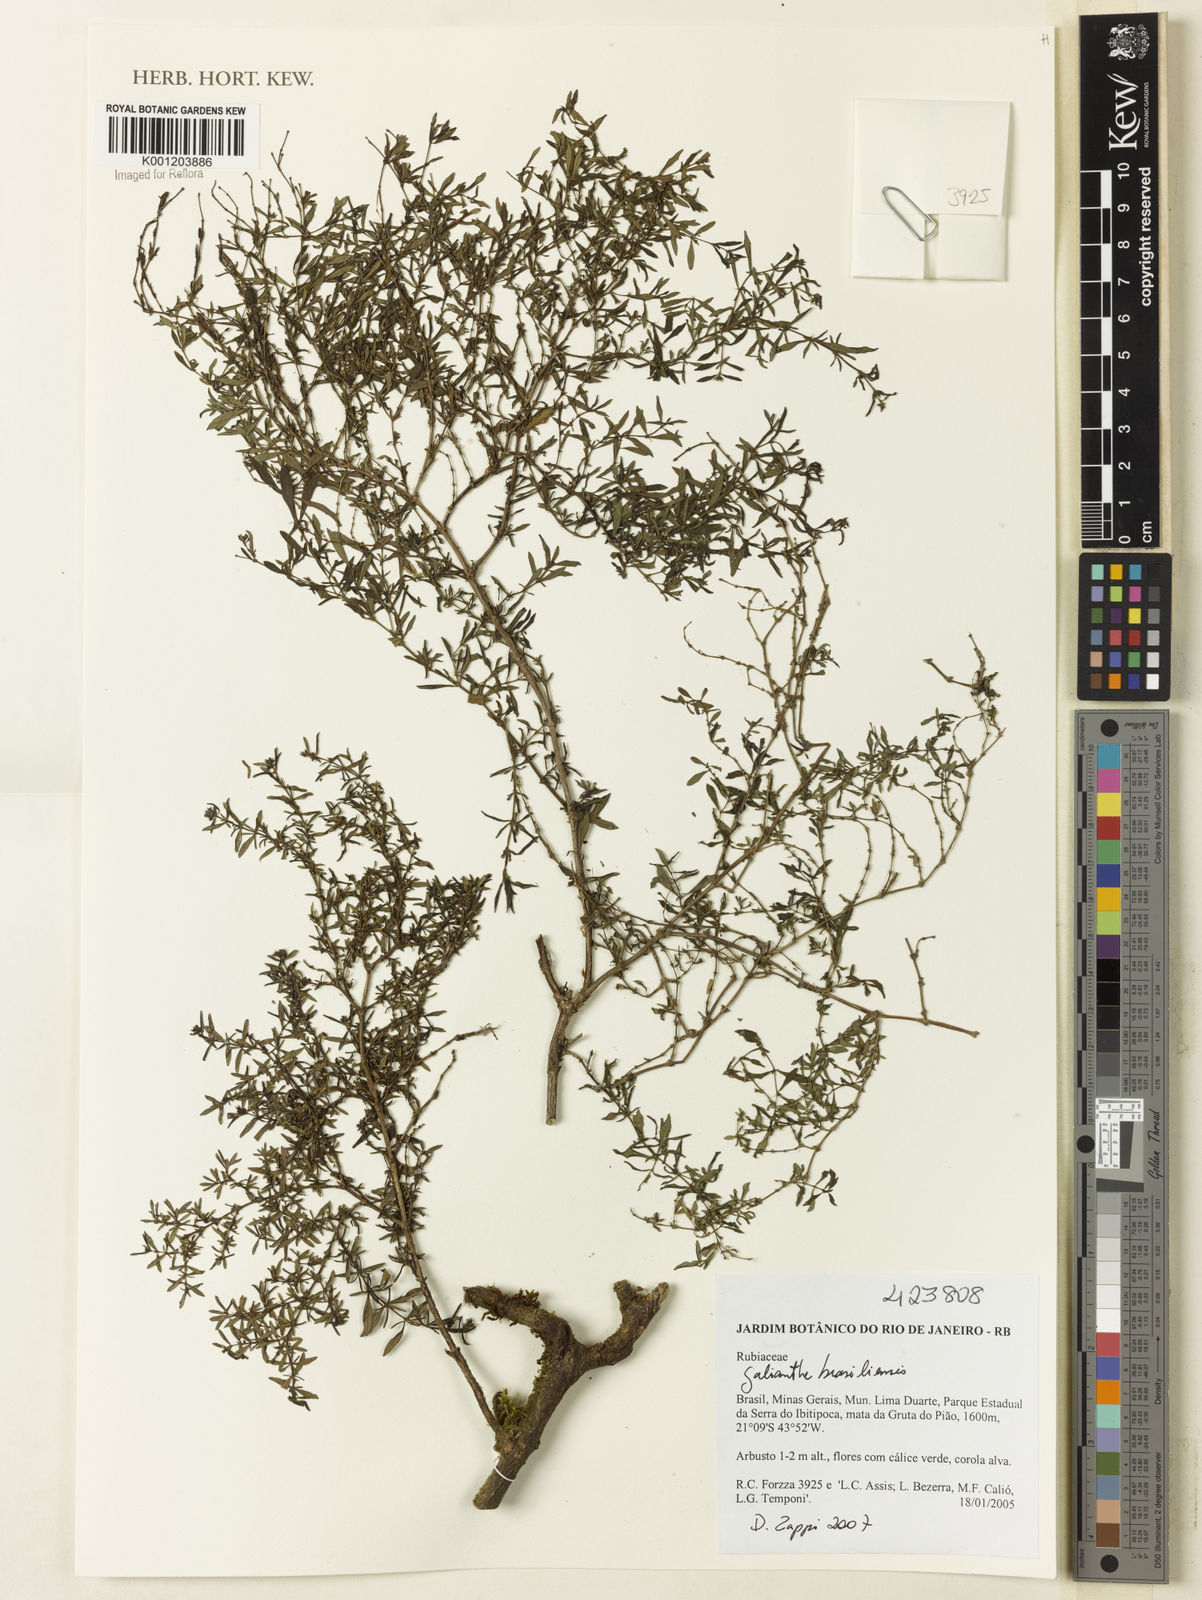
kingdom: Plantae
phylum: Tracheophyta
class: Magnoliopsida
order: Gentianales
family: Rubiaceae
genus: Galianthe
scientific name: Galianthe brasiliensis
